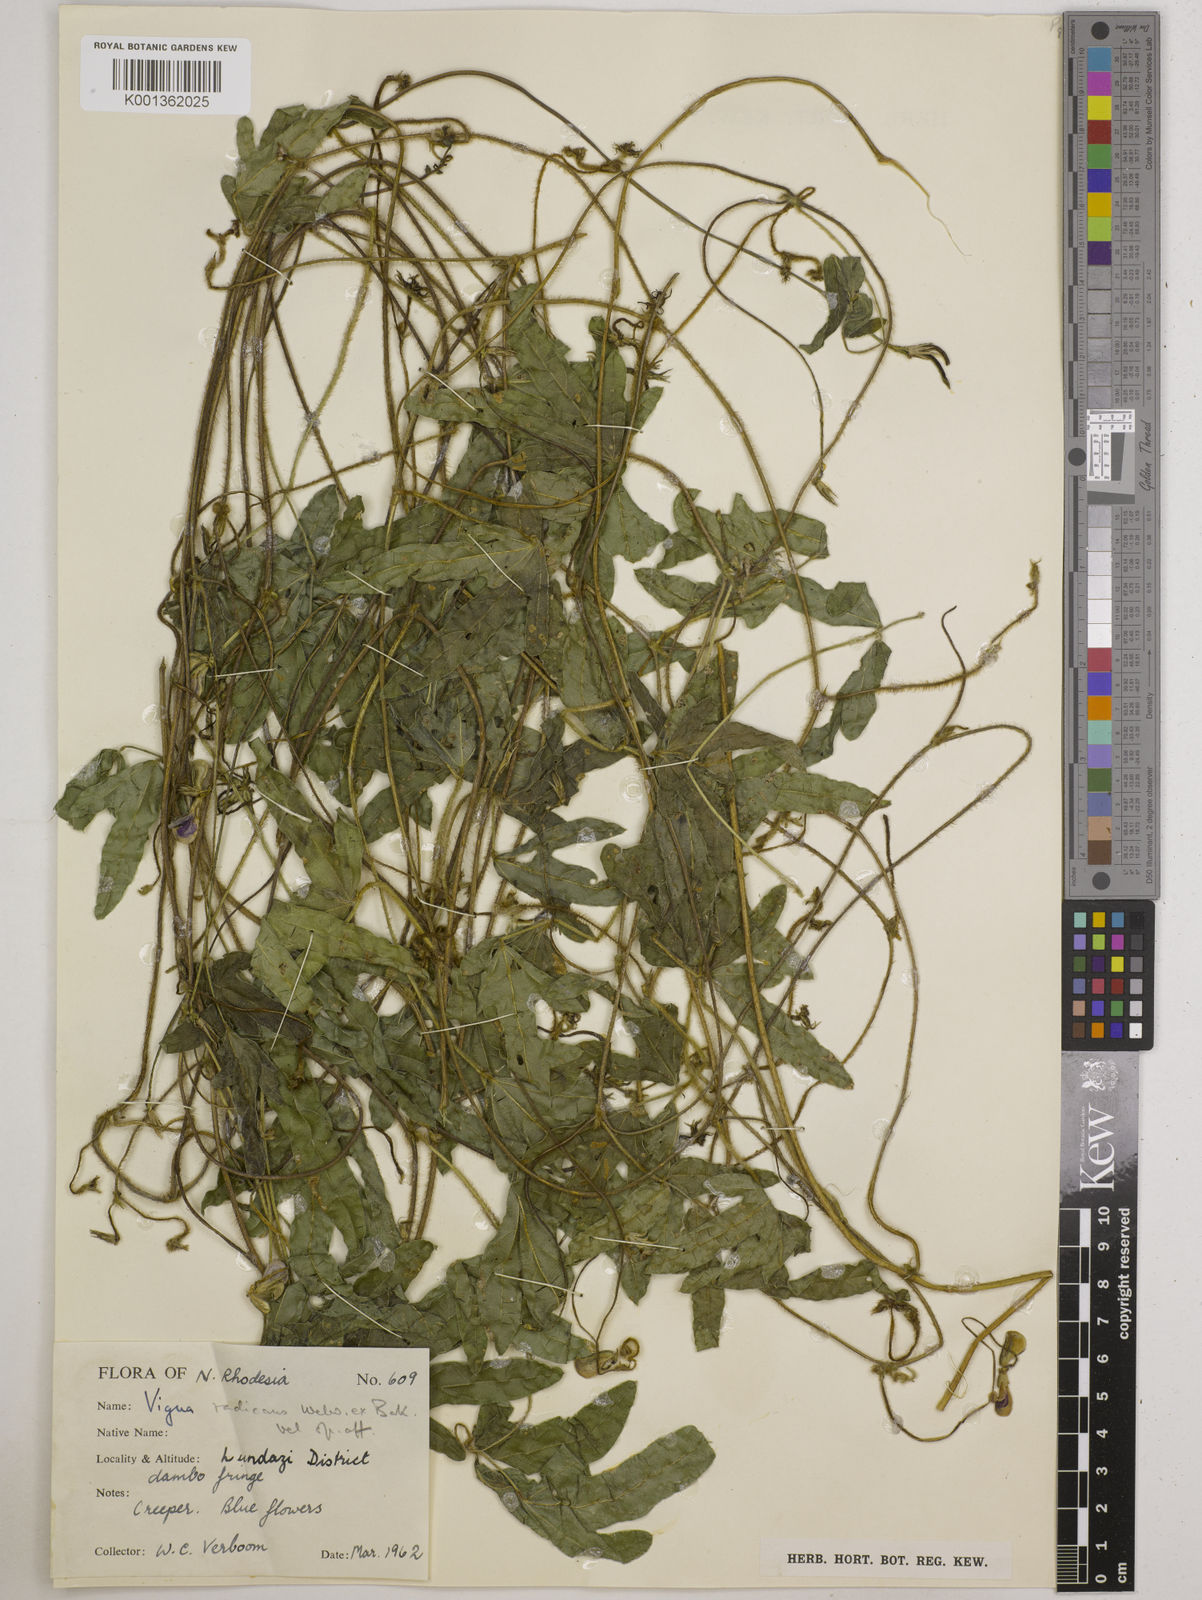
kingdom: Plantae
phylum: Tracheophyta
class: Magnoliopsida
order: Fabales
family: Fabaceae
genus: Vigna
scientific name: Vigna radicans
